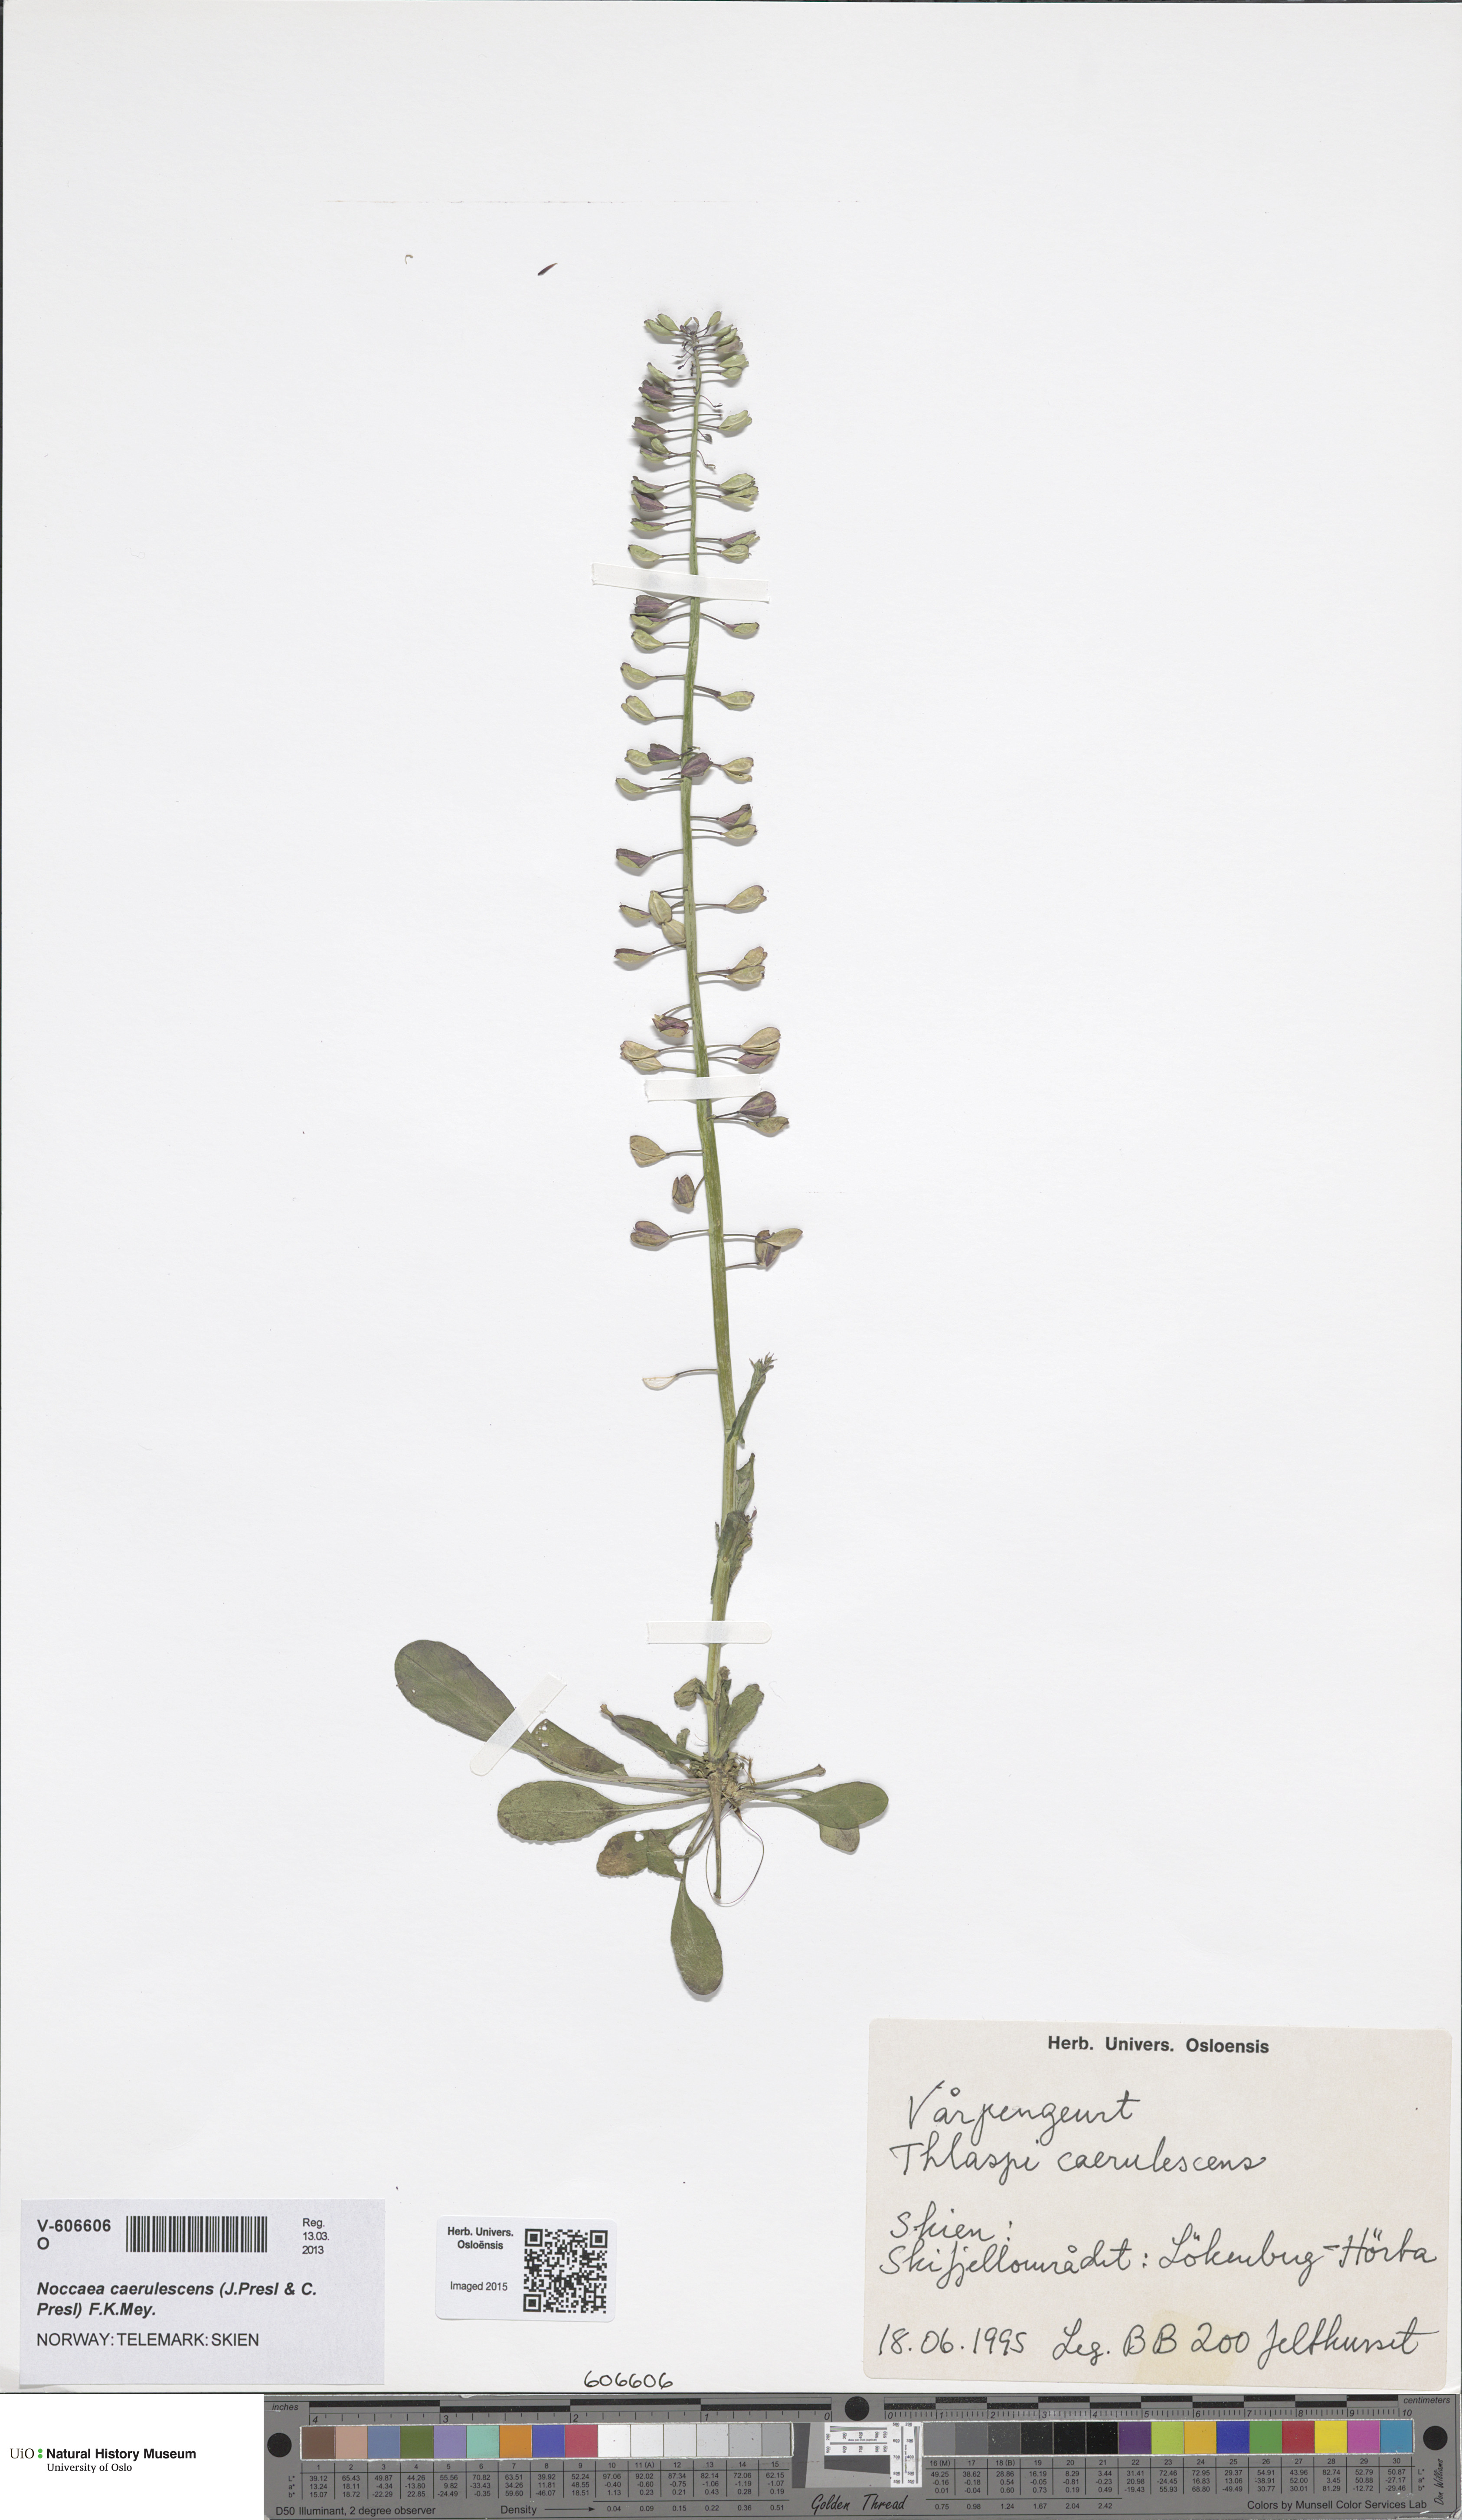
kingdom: Plantae
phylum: Tracheophyta
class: Magnoliopsida
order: Brassicales
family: Brassicaceae
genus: Noccaea
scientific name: Noccaea caerulescens
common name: Alpine pennycress
